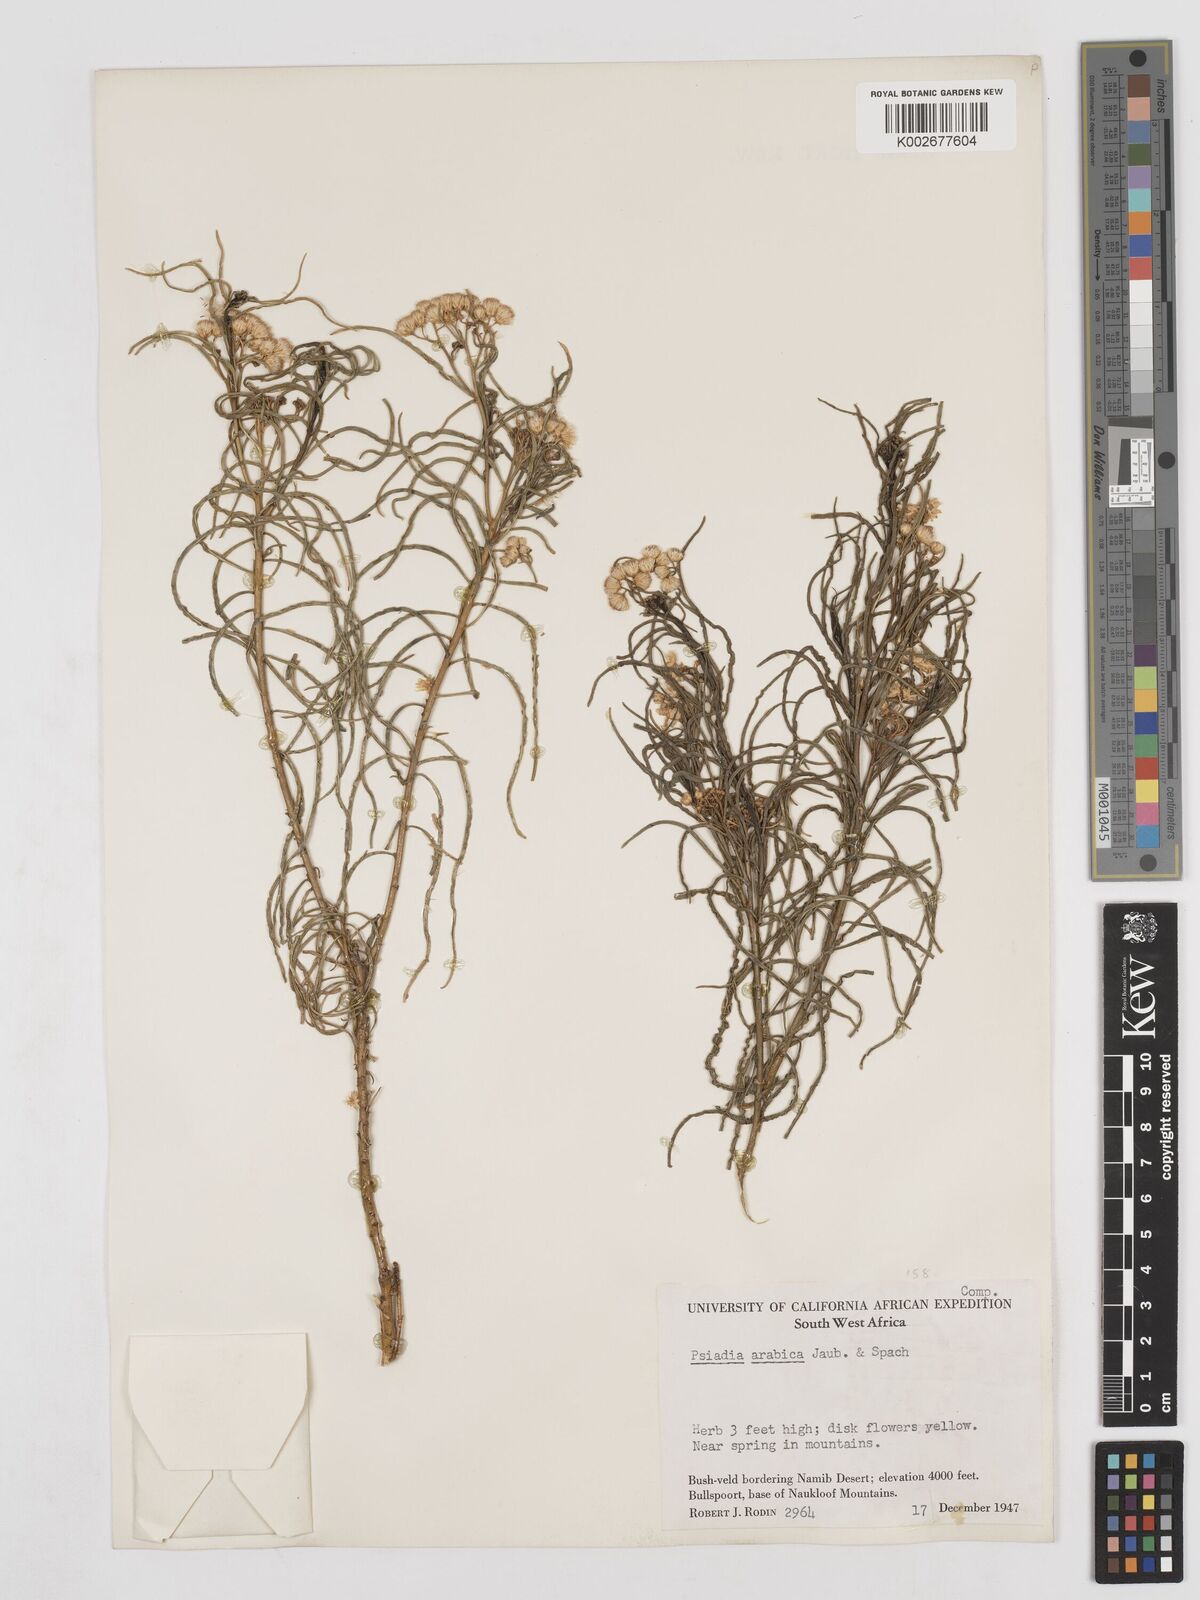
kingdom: Plantae
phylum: Tracheophyta
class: Magnoliopsida
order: Asterales
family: Asteraceae
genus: Psiadia
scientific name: Psiadia punctulata
